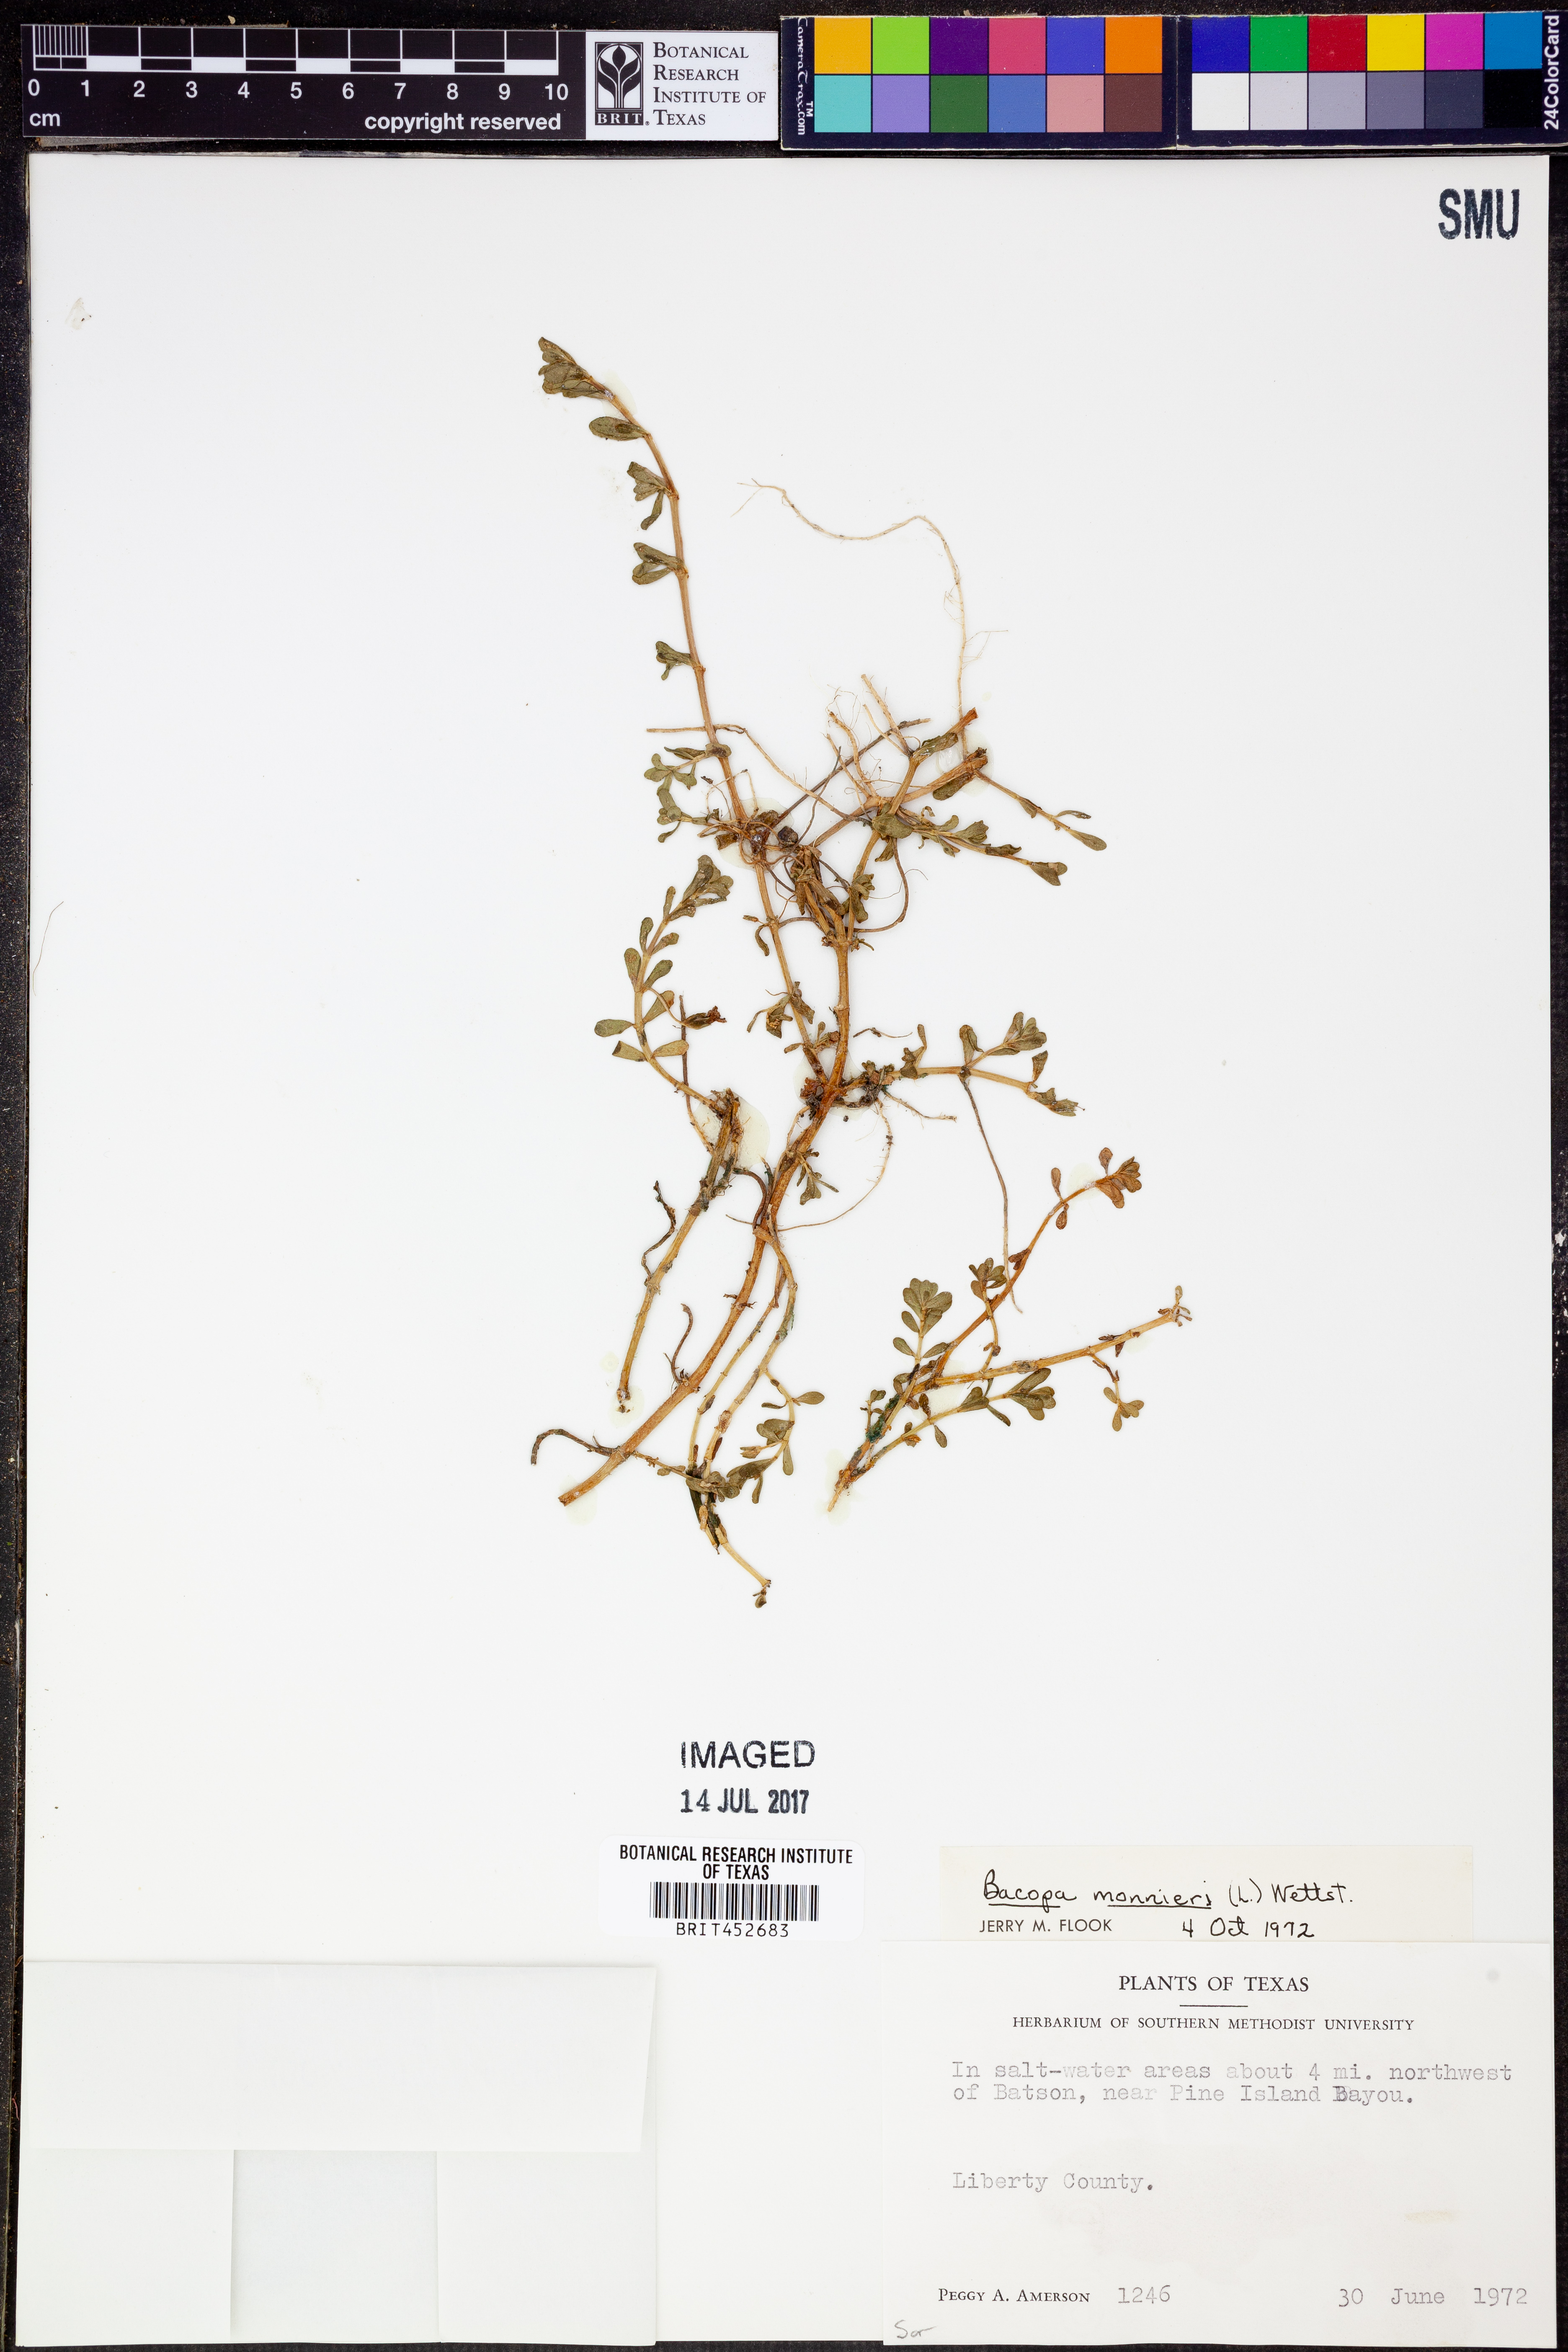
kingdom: Plantae
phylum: Tracheophyta
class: Magnoliopsida
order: Lamiales
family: Plantaginaceae
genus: Bacopa
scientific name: Bacopa monnieri
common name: Indian-pennywort
